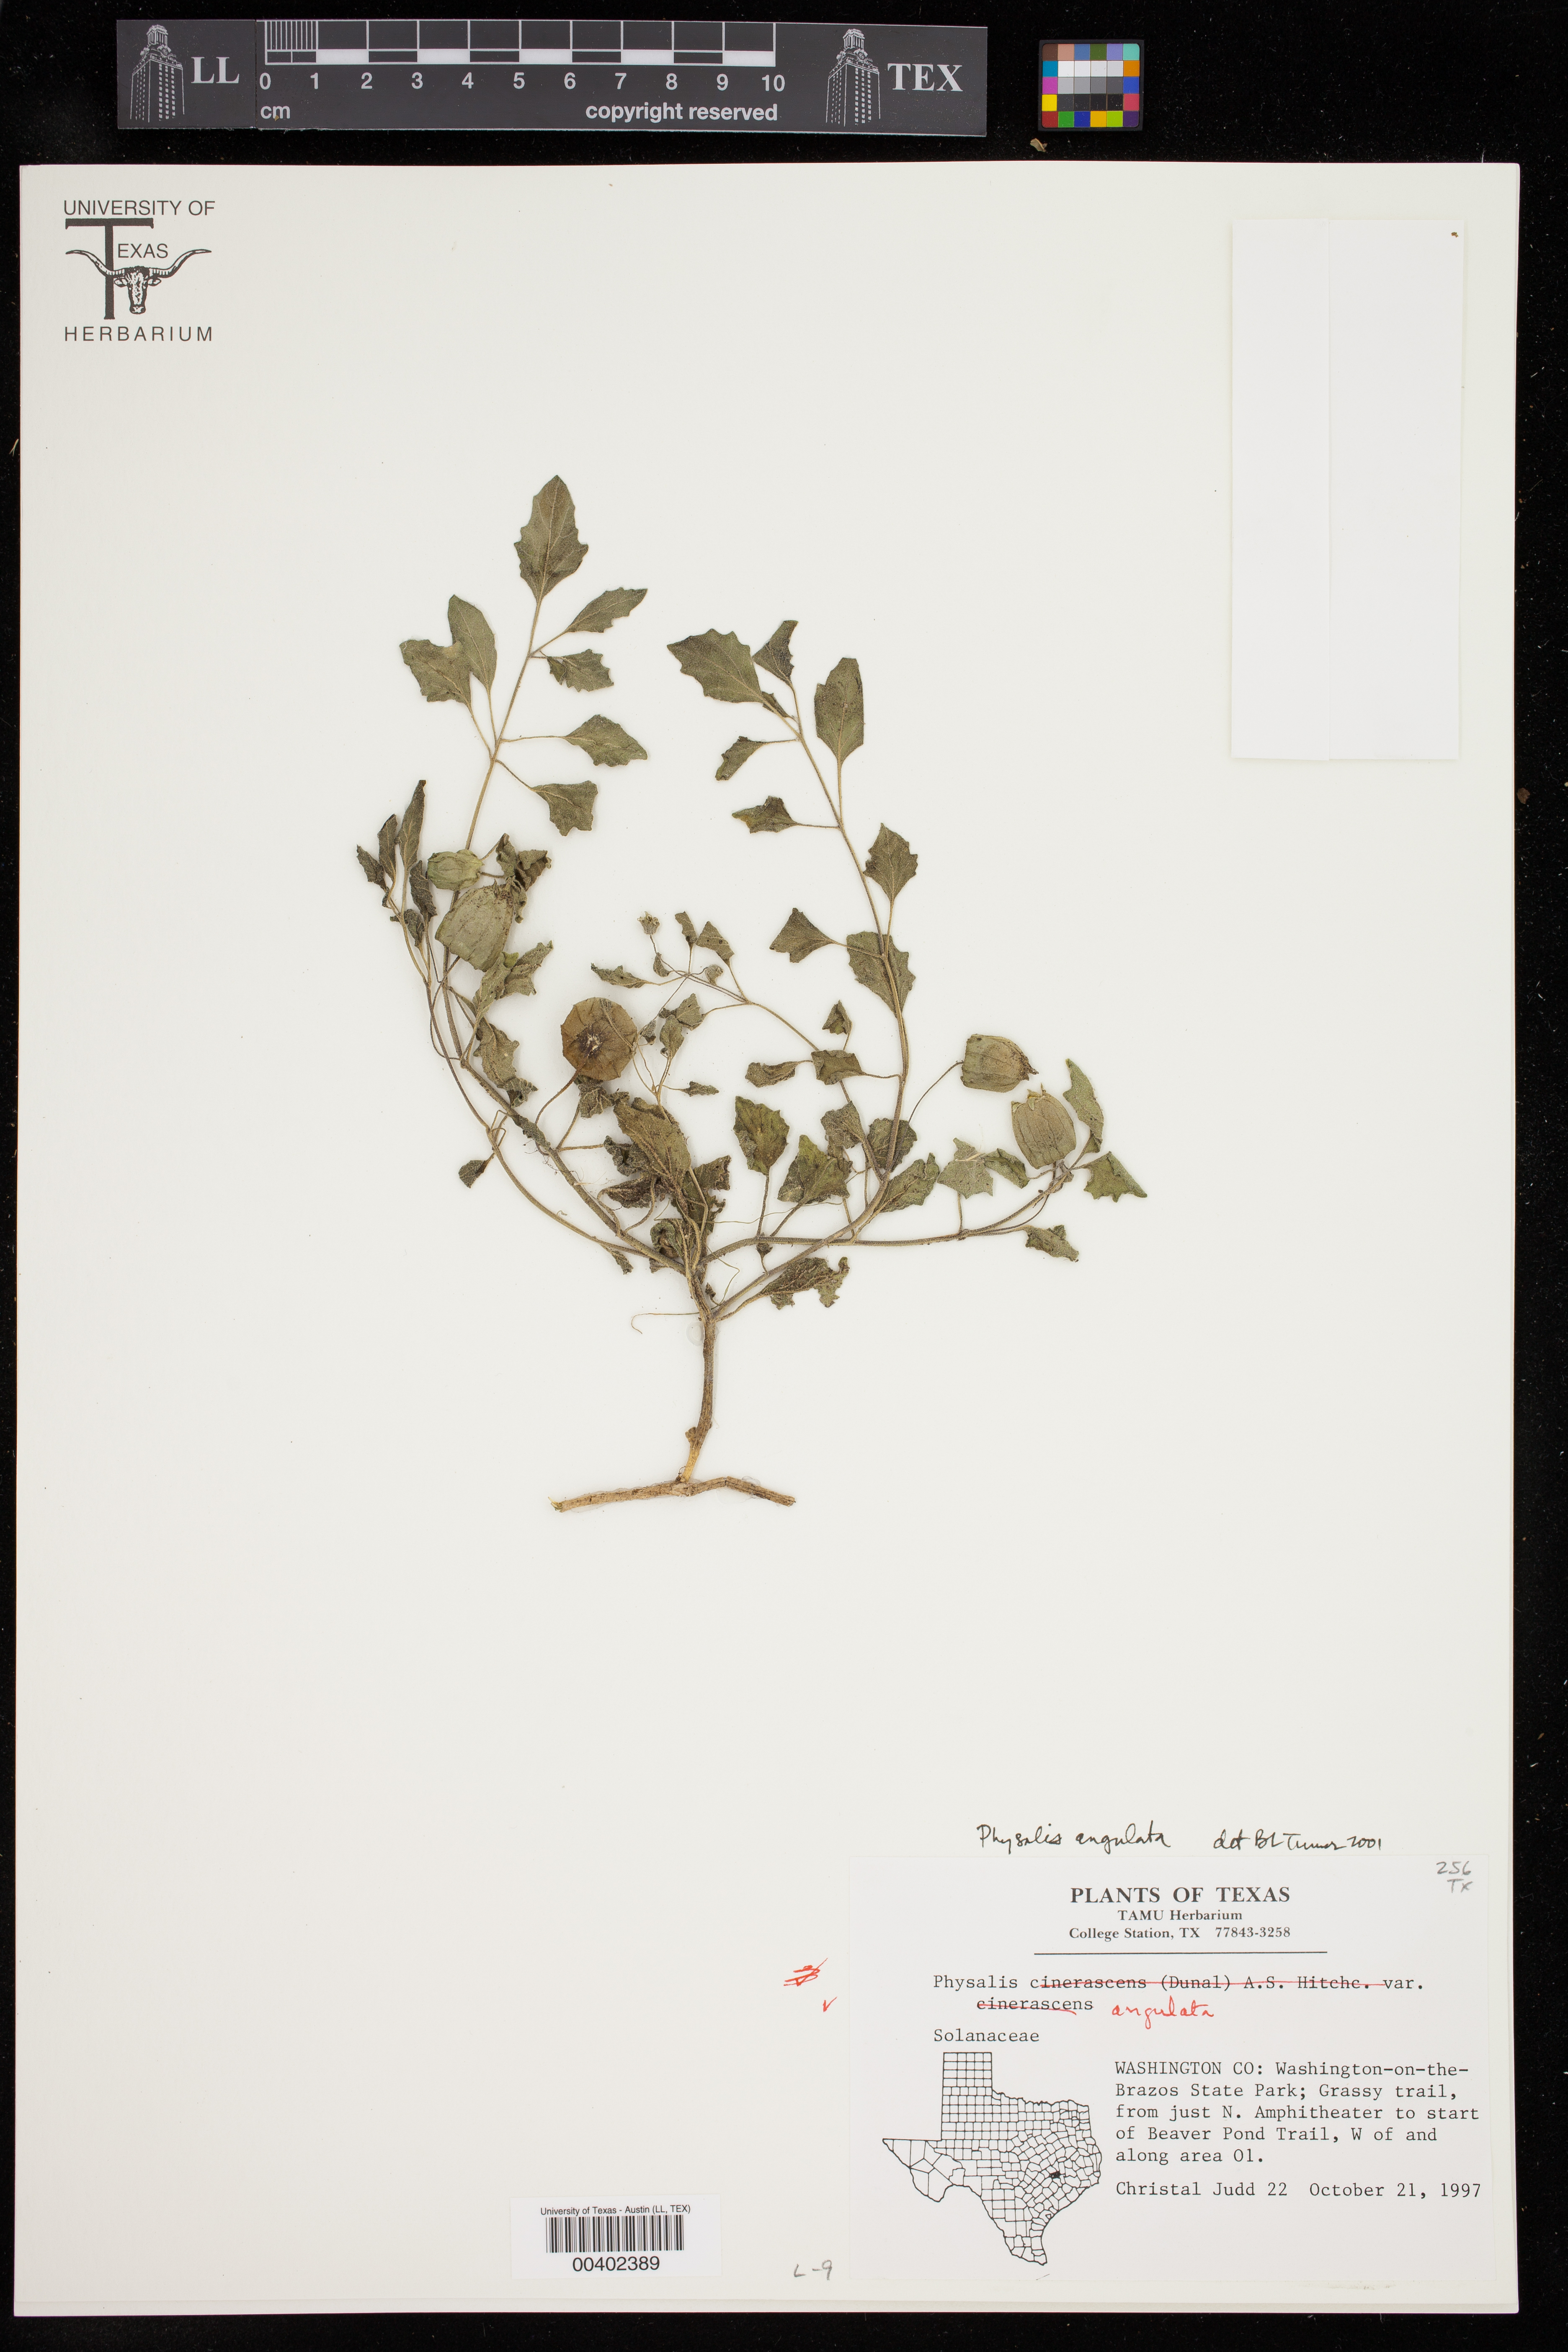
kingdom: Plantae
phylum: Tracheophyta
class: Magnoliopsida
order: Solanales
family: Solanaceae
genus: Physalis
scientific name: Physalis angulata
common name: Angular winter-cherry
